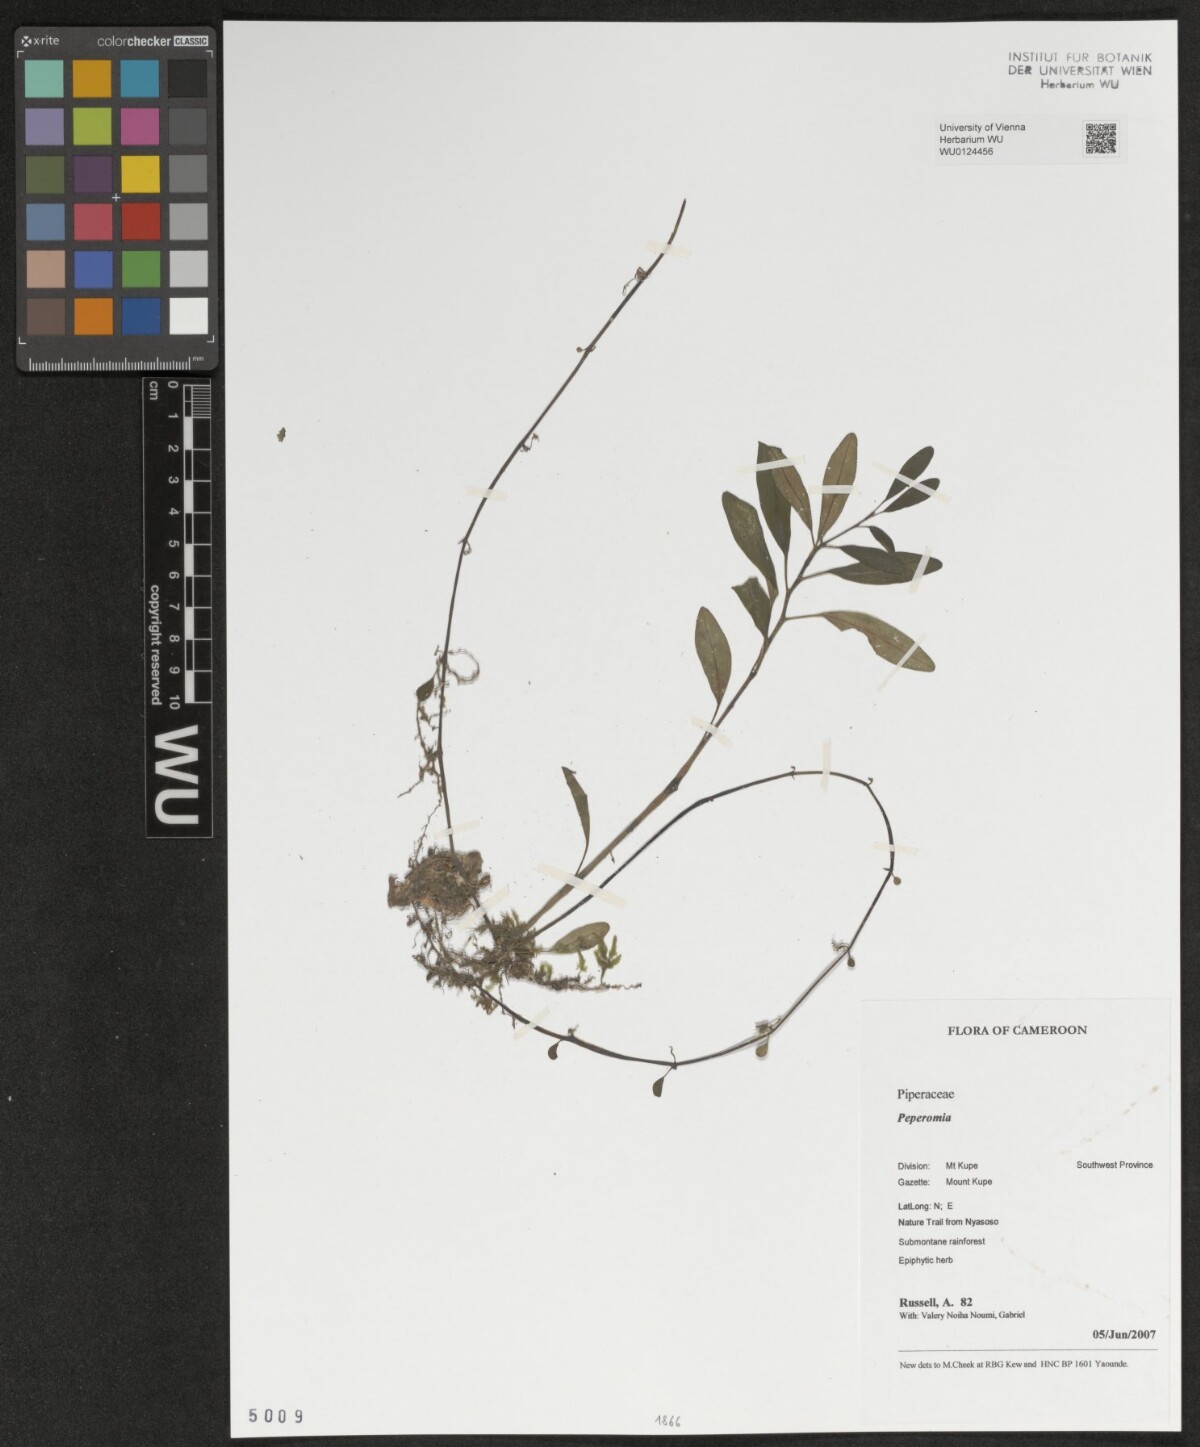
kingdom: Plantae
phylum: Tracheophyta
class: Magnoliopsida
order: Piperales
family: Piperaceae
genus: Peperomia
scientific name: Peperomia
